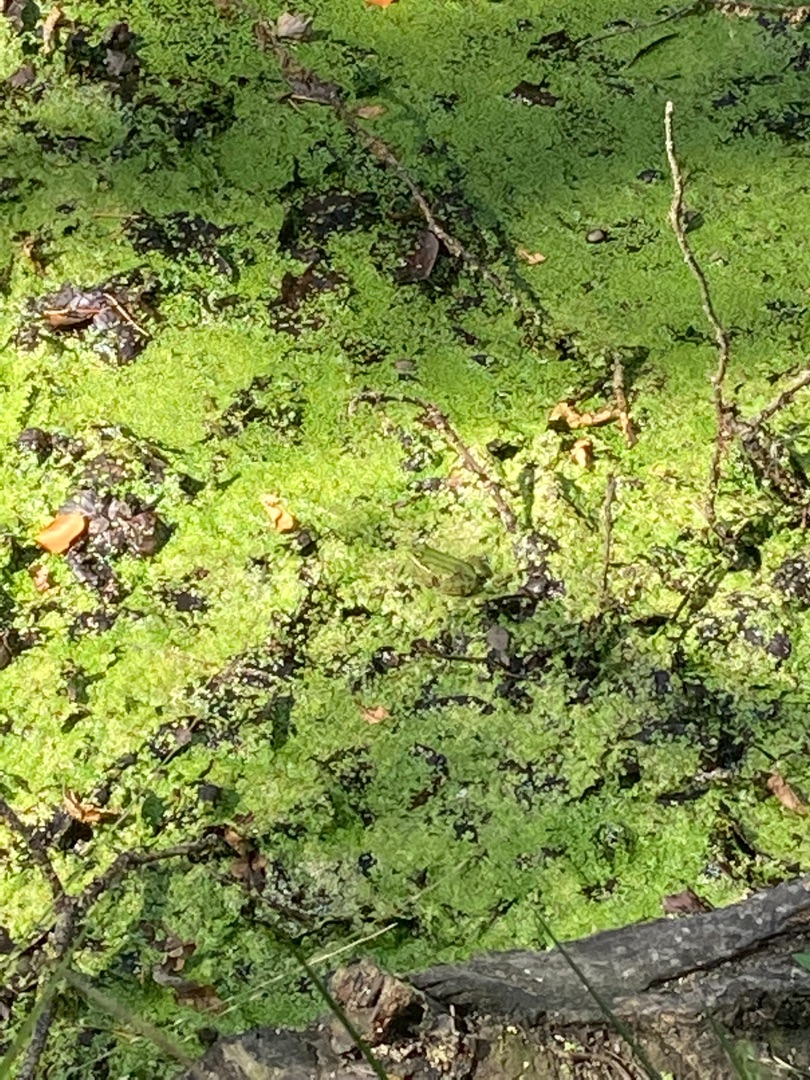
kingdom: Animalia
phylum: Chordata
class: Amphibia
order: Anura
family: Ranidae
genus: Pelophylax
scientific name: Pelophylax lessonae
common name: Grøn frø
